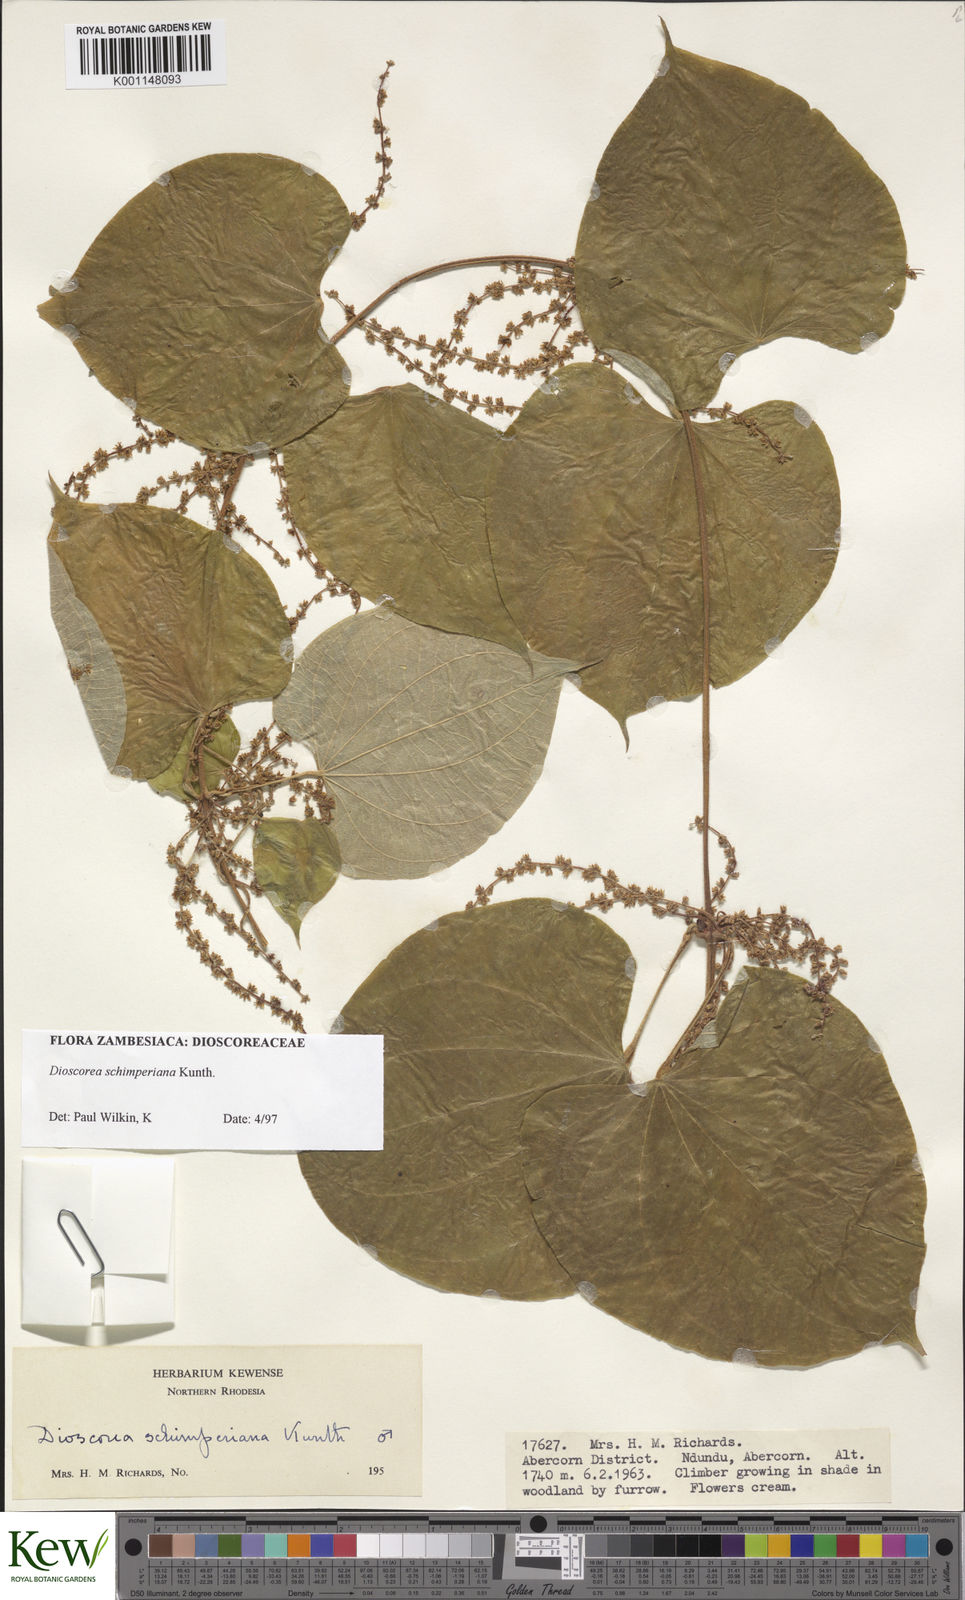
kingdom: Plantae
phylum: Tracheophyta
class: Liliopsida
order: Dioscoreales
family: Dioscoreaceae
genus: Dioscorea
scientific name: Dioscorea schimperiana
